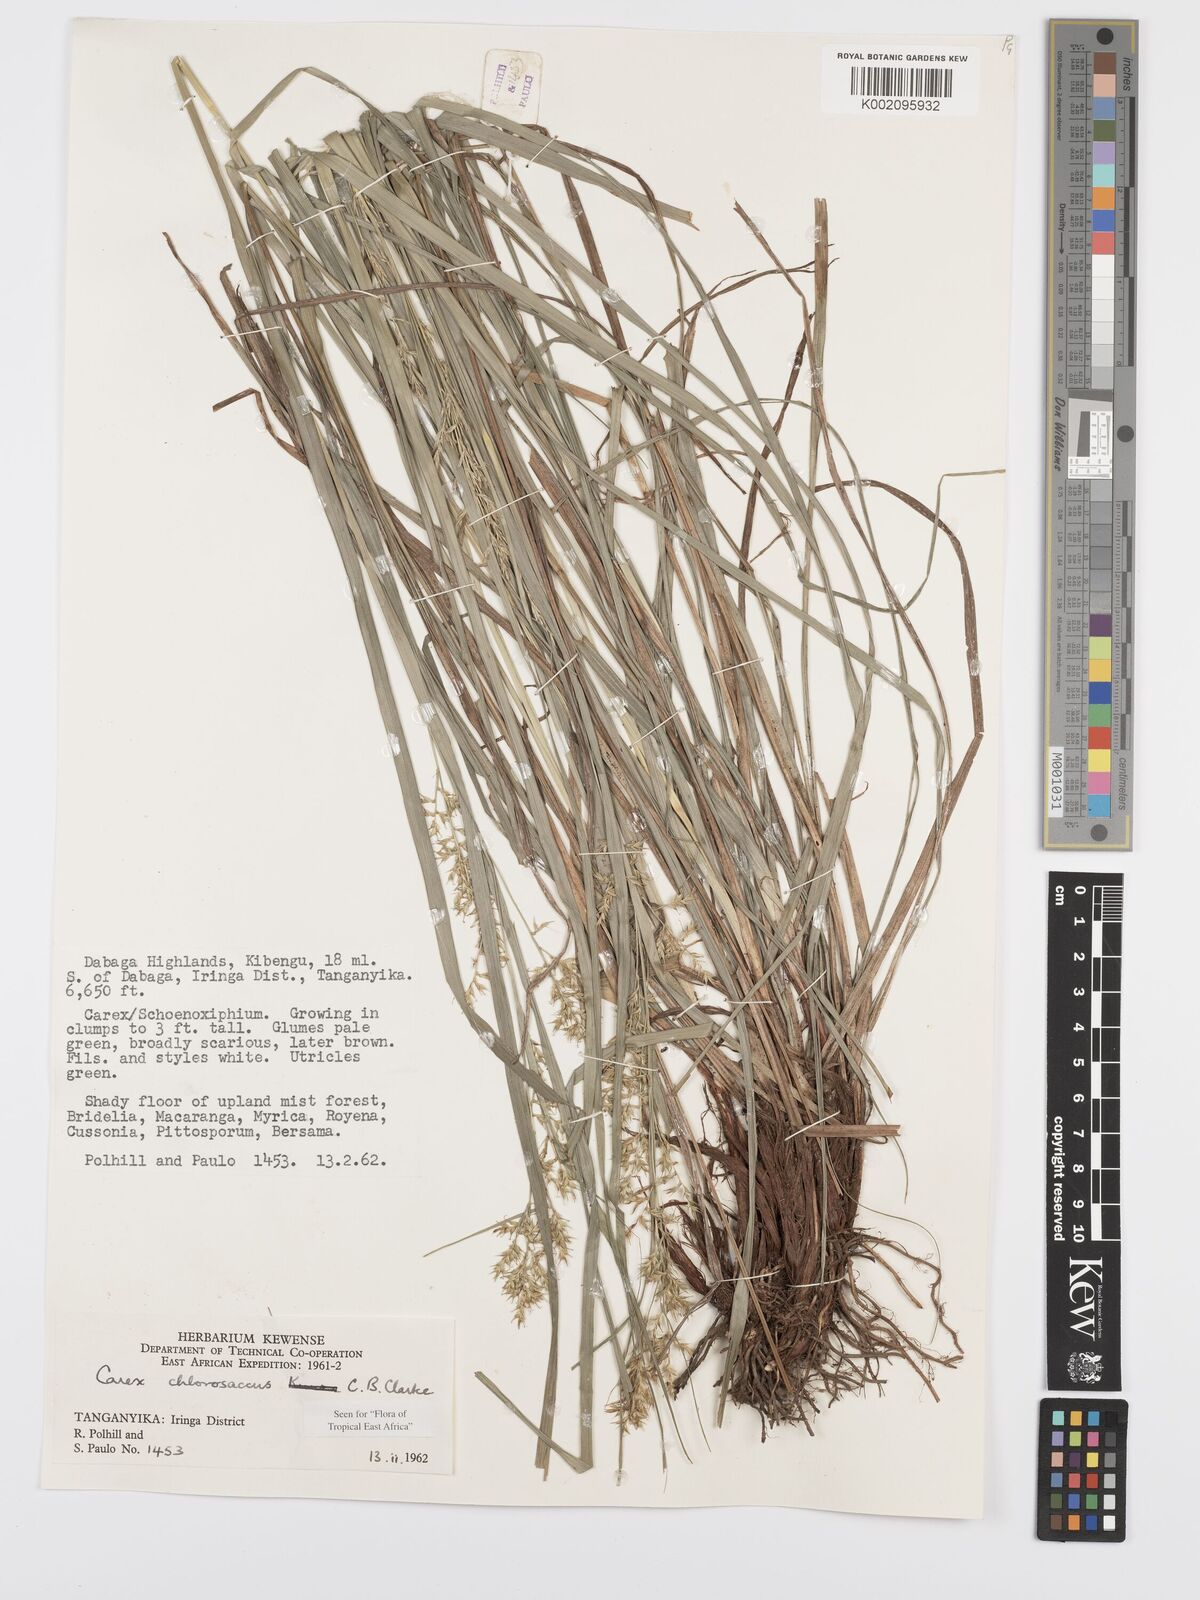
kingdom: Plantae
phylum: Tracheophyta
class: Liliopsida
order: Poales
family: Cyperaceae
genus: Carex
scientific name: Carex chlorosaccus
